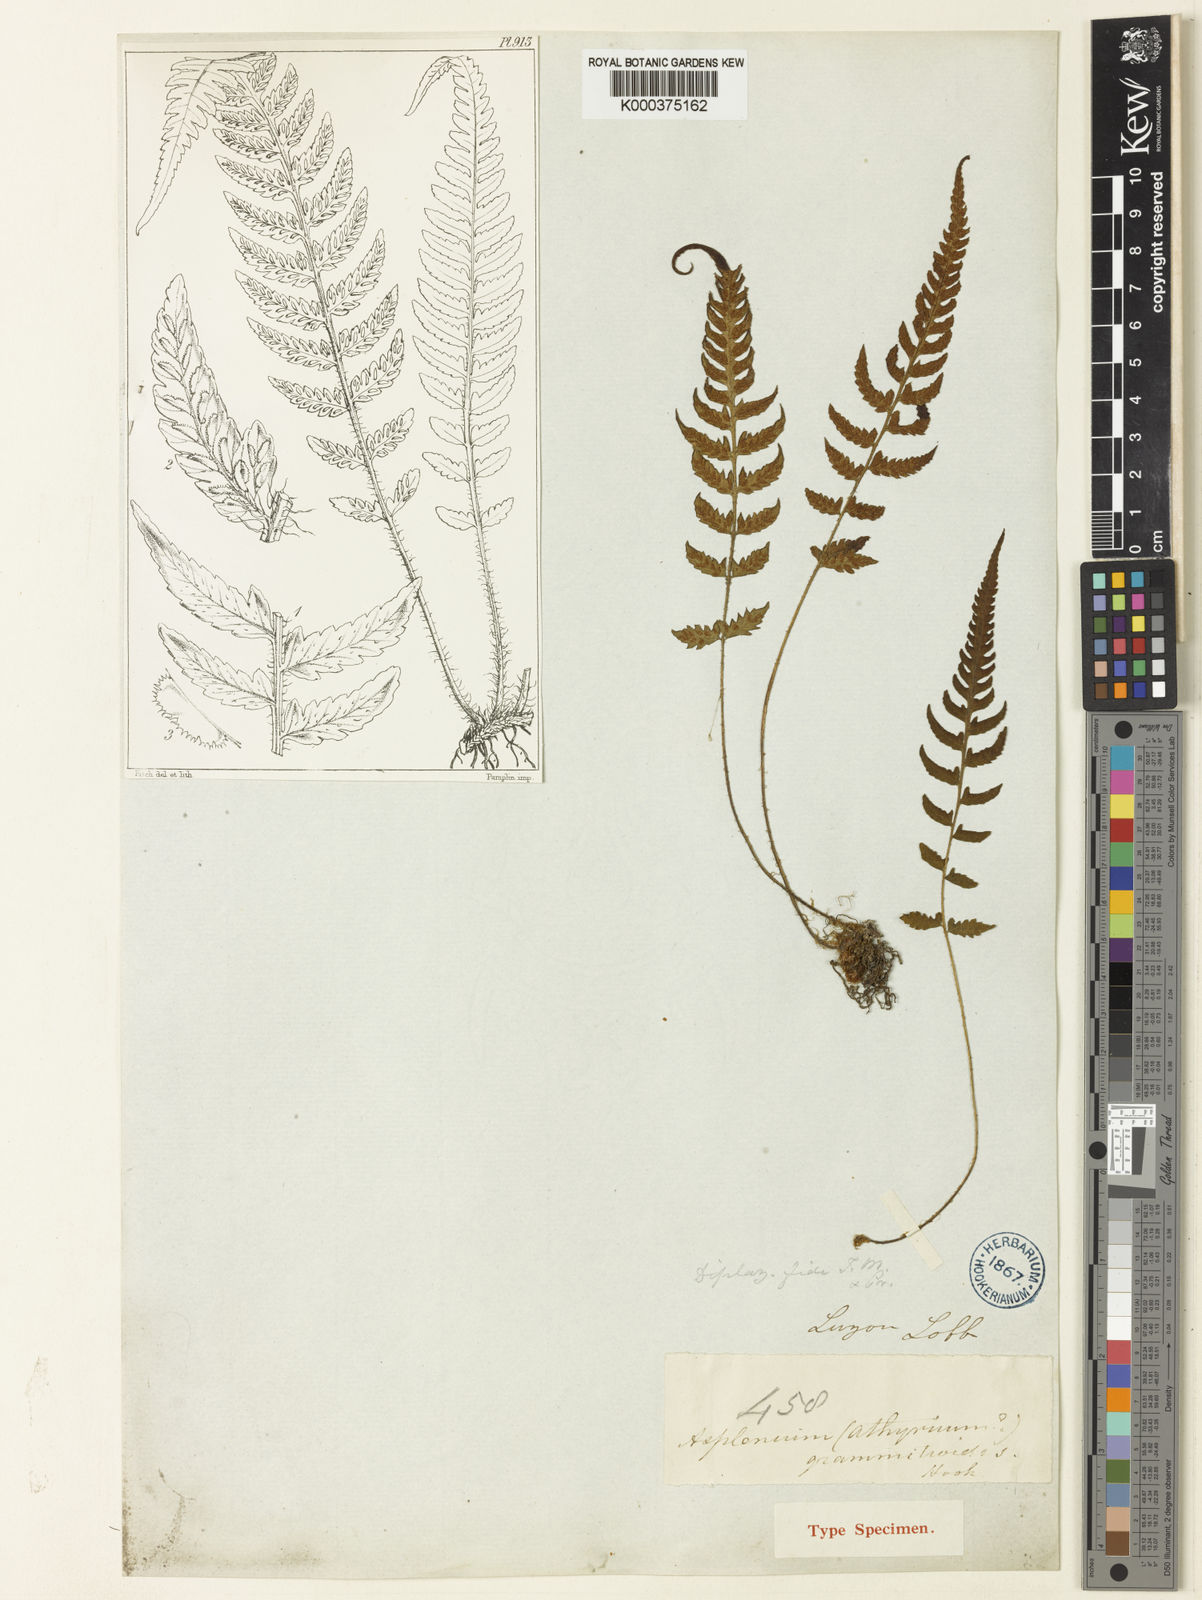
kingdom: Plantae
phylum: Tracheophyta
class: Polypodiopsida
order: Polypodiales
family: Athyriaceae
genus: Deparia
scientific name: Deparia confluens
